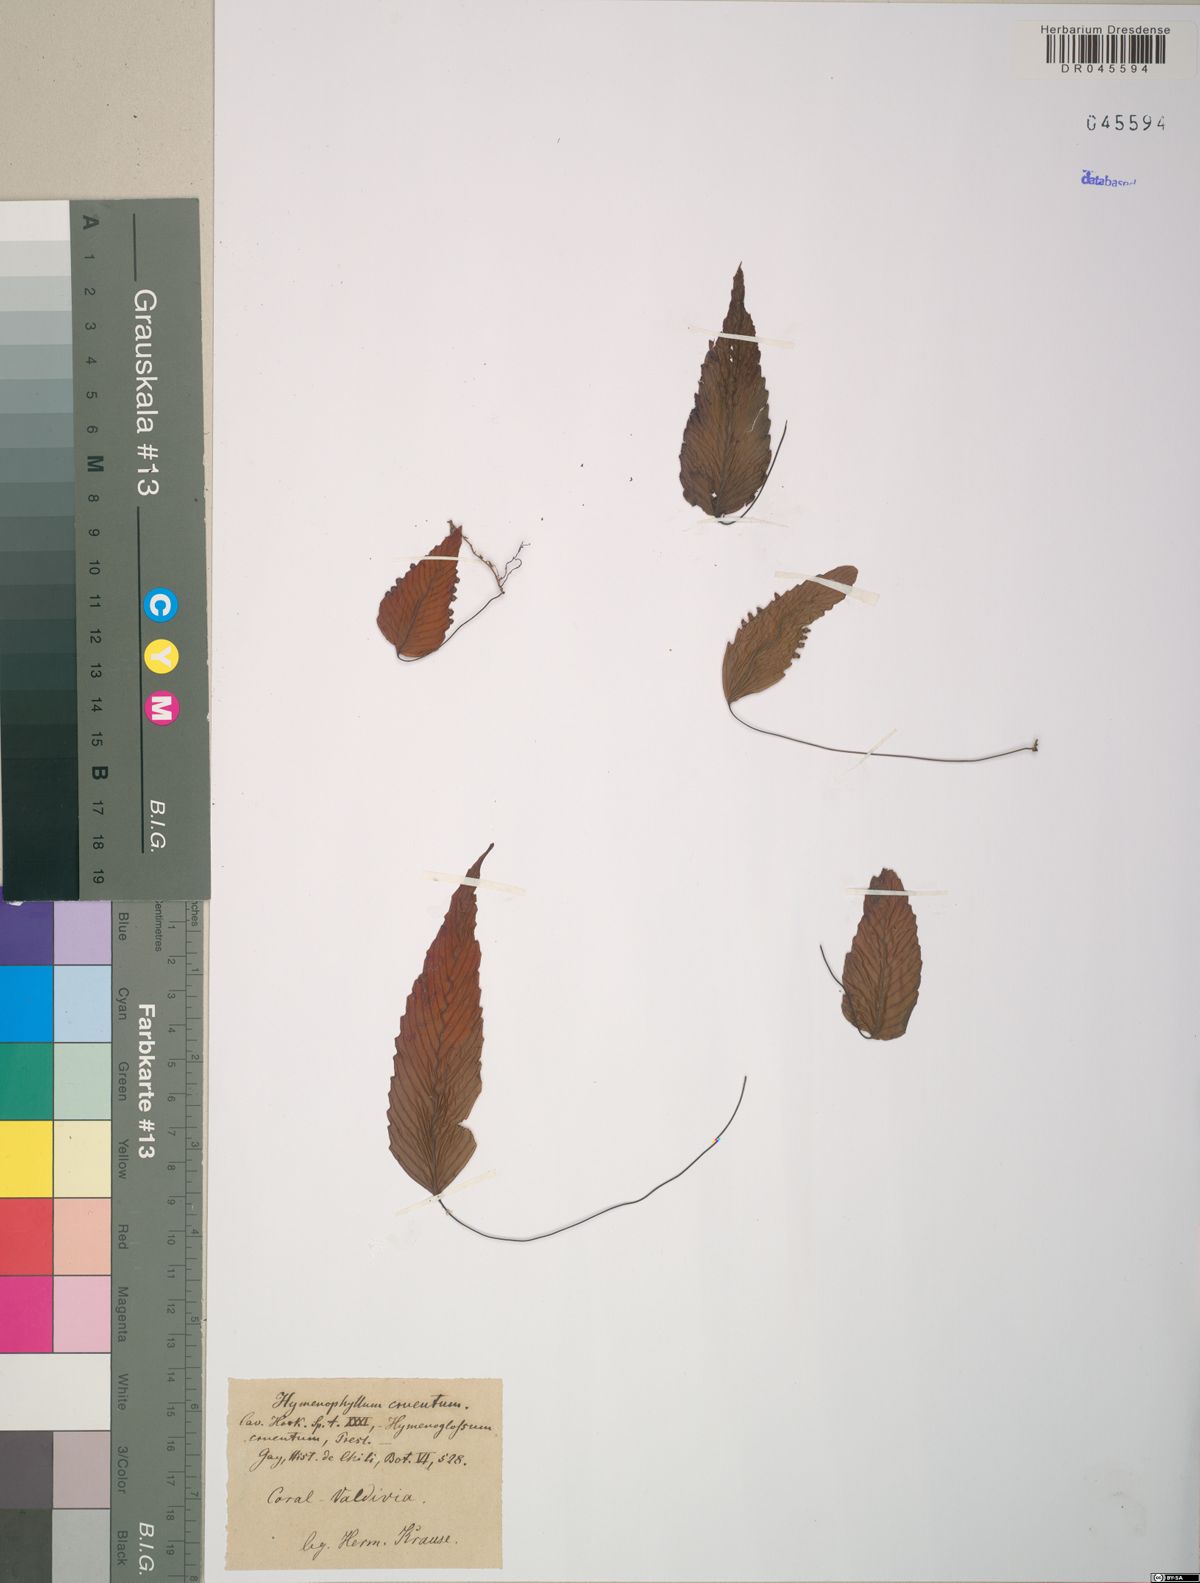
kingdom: Plantae
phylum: Tracheophyta
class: Polypodiopsida
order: Hymenophyllales
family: Hymenophyllaceae
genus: Hymenophyllum
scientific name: Hymenophyllum cruentum
